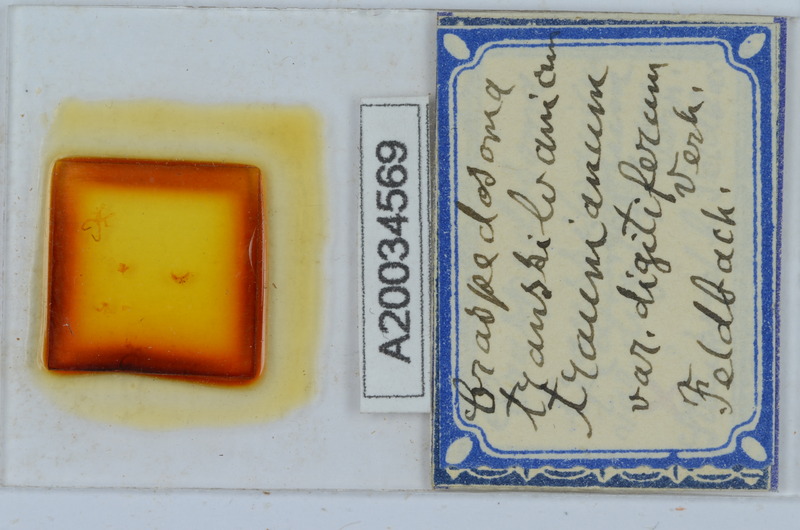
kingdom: Animalia
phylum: Arthropoda
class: Diplopoda
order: Chordeumatida
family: Craspedosomatidae
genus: Craspedosoma
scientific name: Craspedosoma rawlinsii
